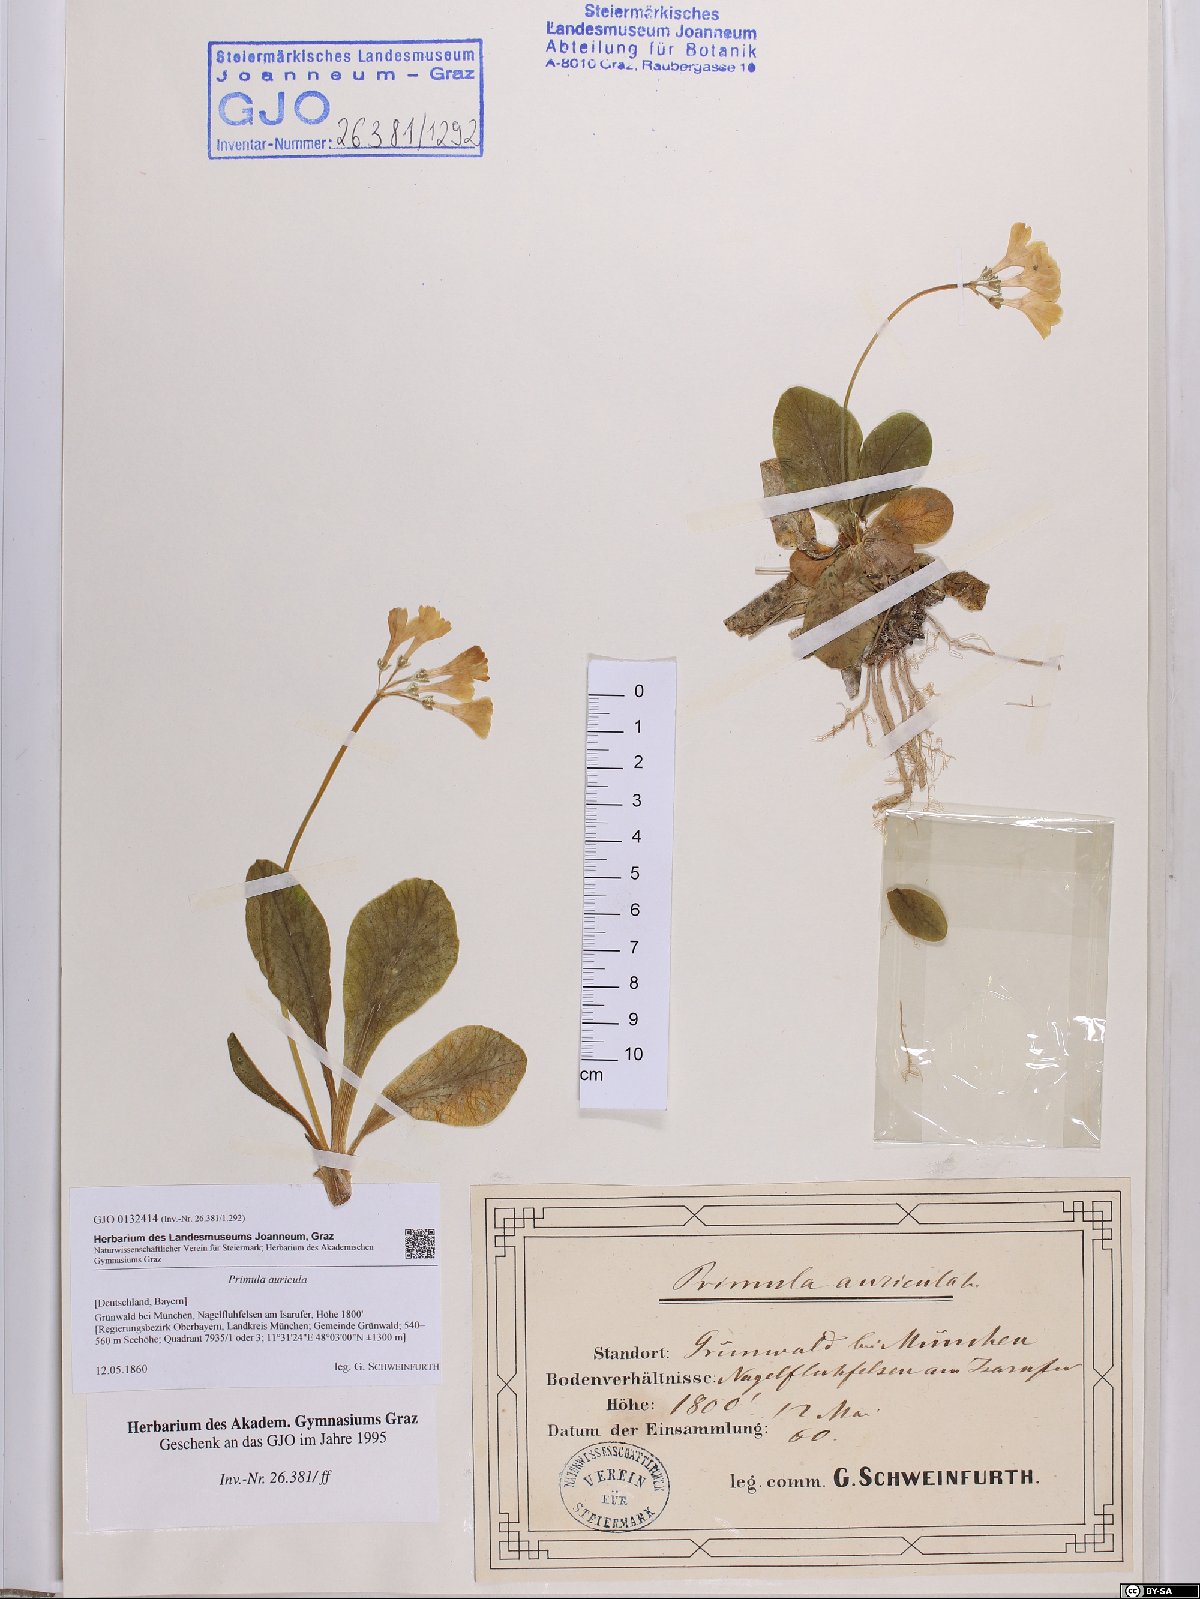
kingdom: Plantae
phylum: Tracheophyta
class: Magnoliopsida
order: Ericales
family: Primulaceae
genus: Primula
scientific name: Primula auricula
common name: Auricula
